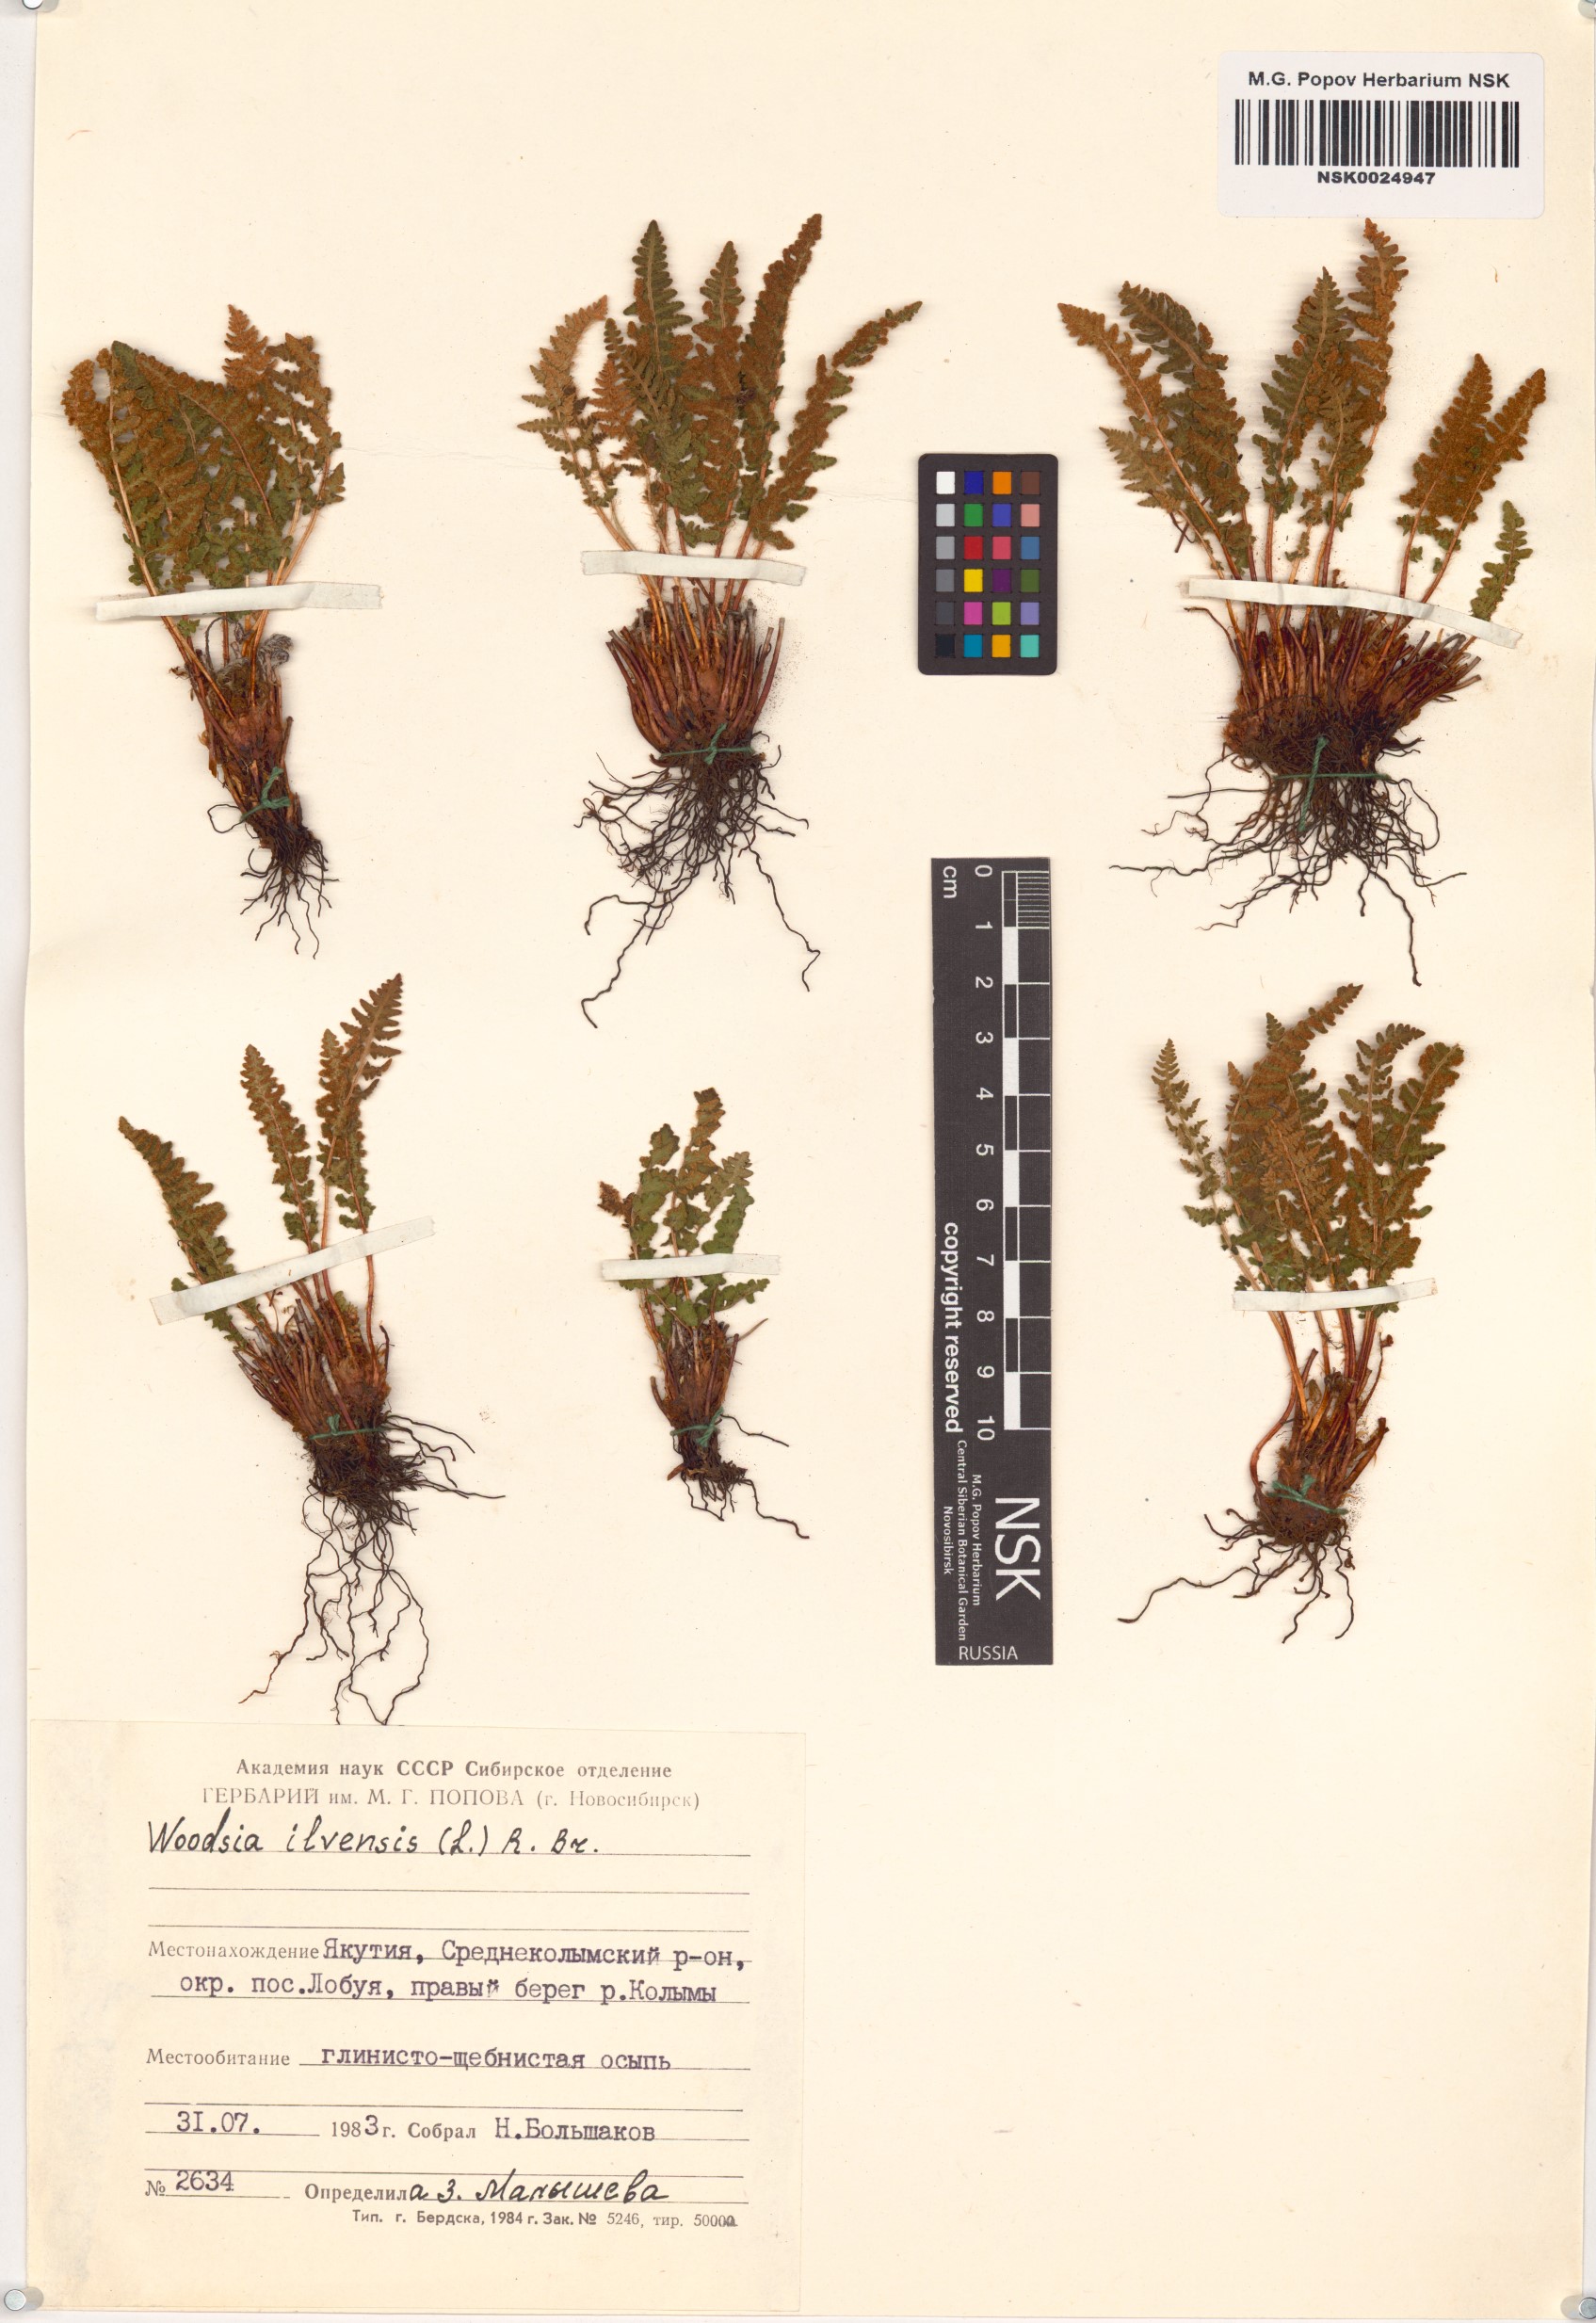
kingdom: Plantae
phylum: Tracheophyta
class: Polypodiopsida
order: Polypodiales
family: Woodsiaceae
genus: Woodsia
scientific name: Woodsia ilvensis
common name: Fragrant woodsia
